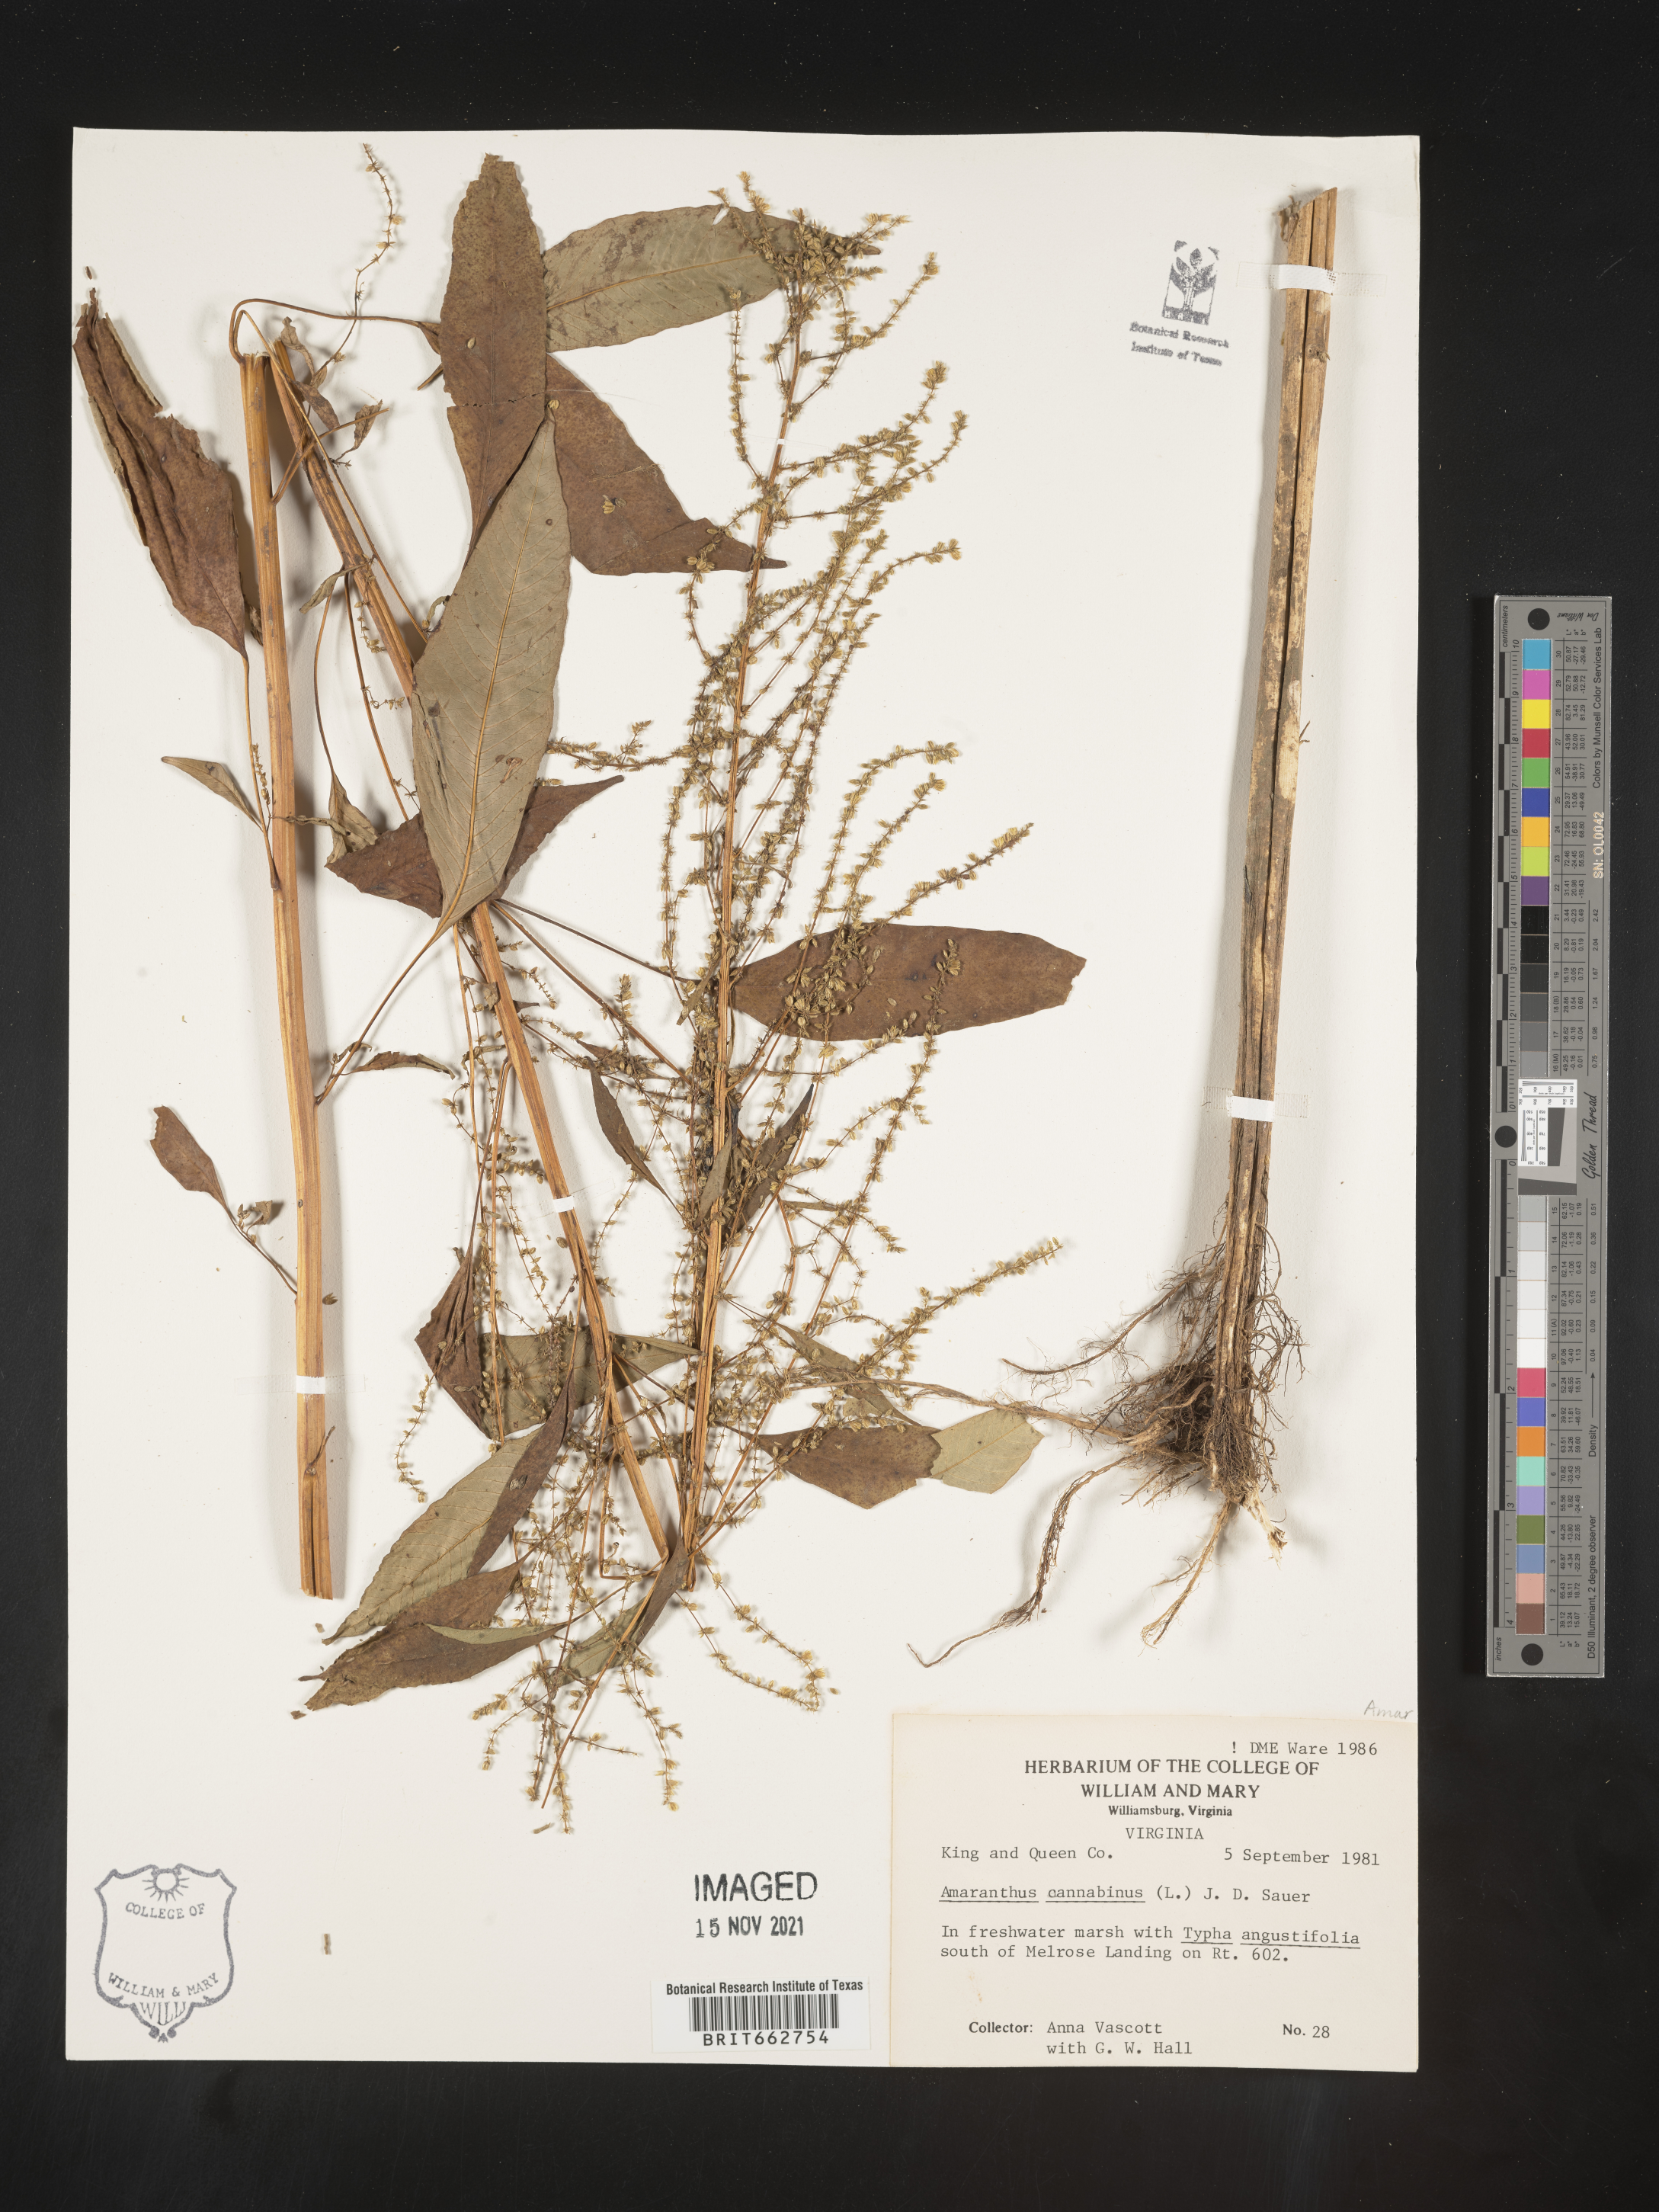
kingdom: Plantae
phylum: Tracheophyta
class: Magnoliopsida
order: Caryophyllales
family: Amaranthaceae
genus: Amaranthus
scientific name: Amaranthus cannabinus
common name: Salt-marsh water-hemp
